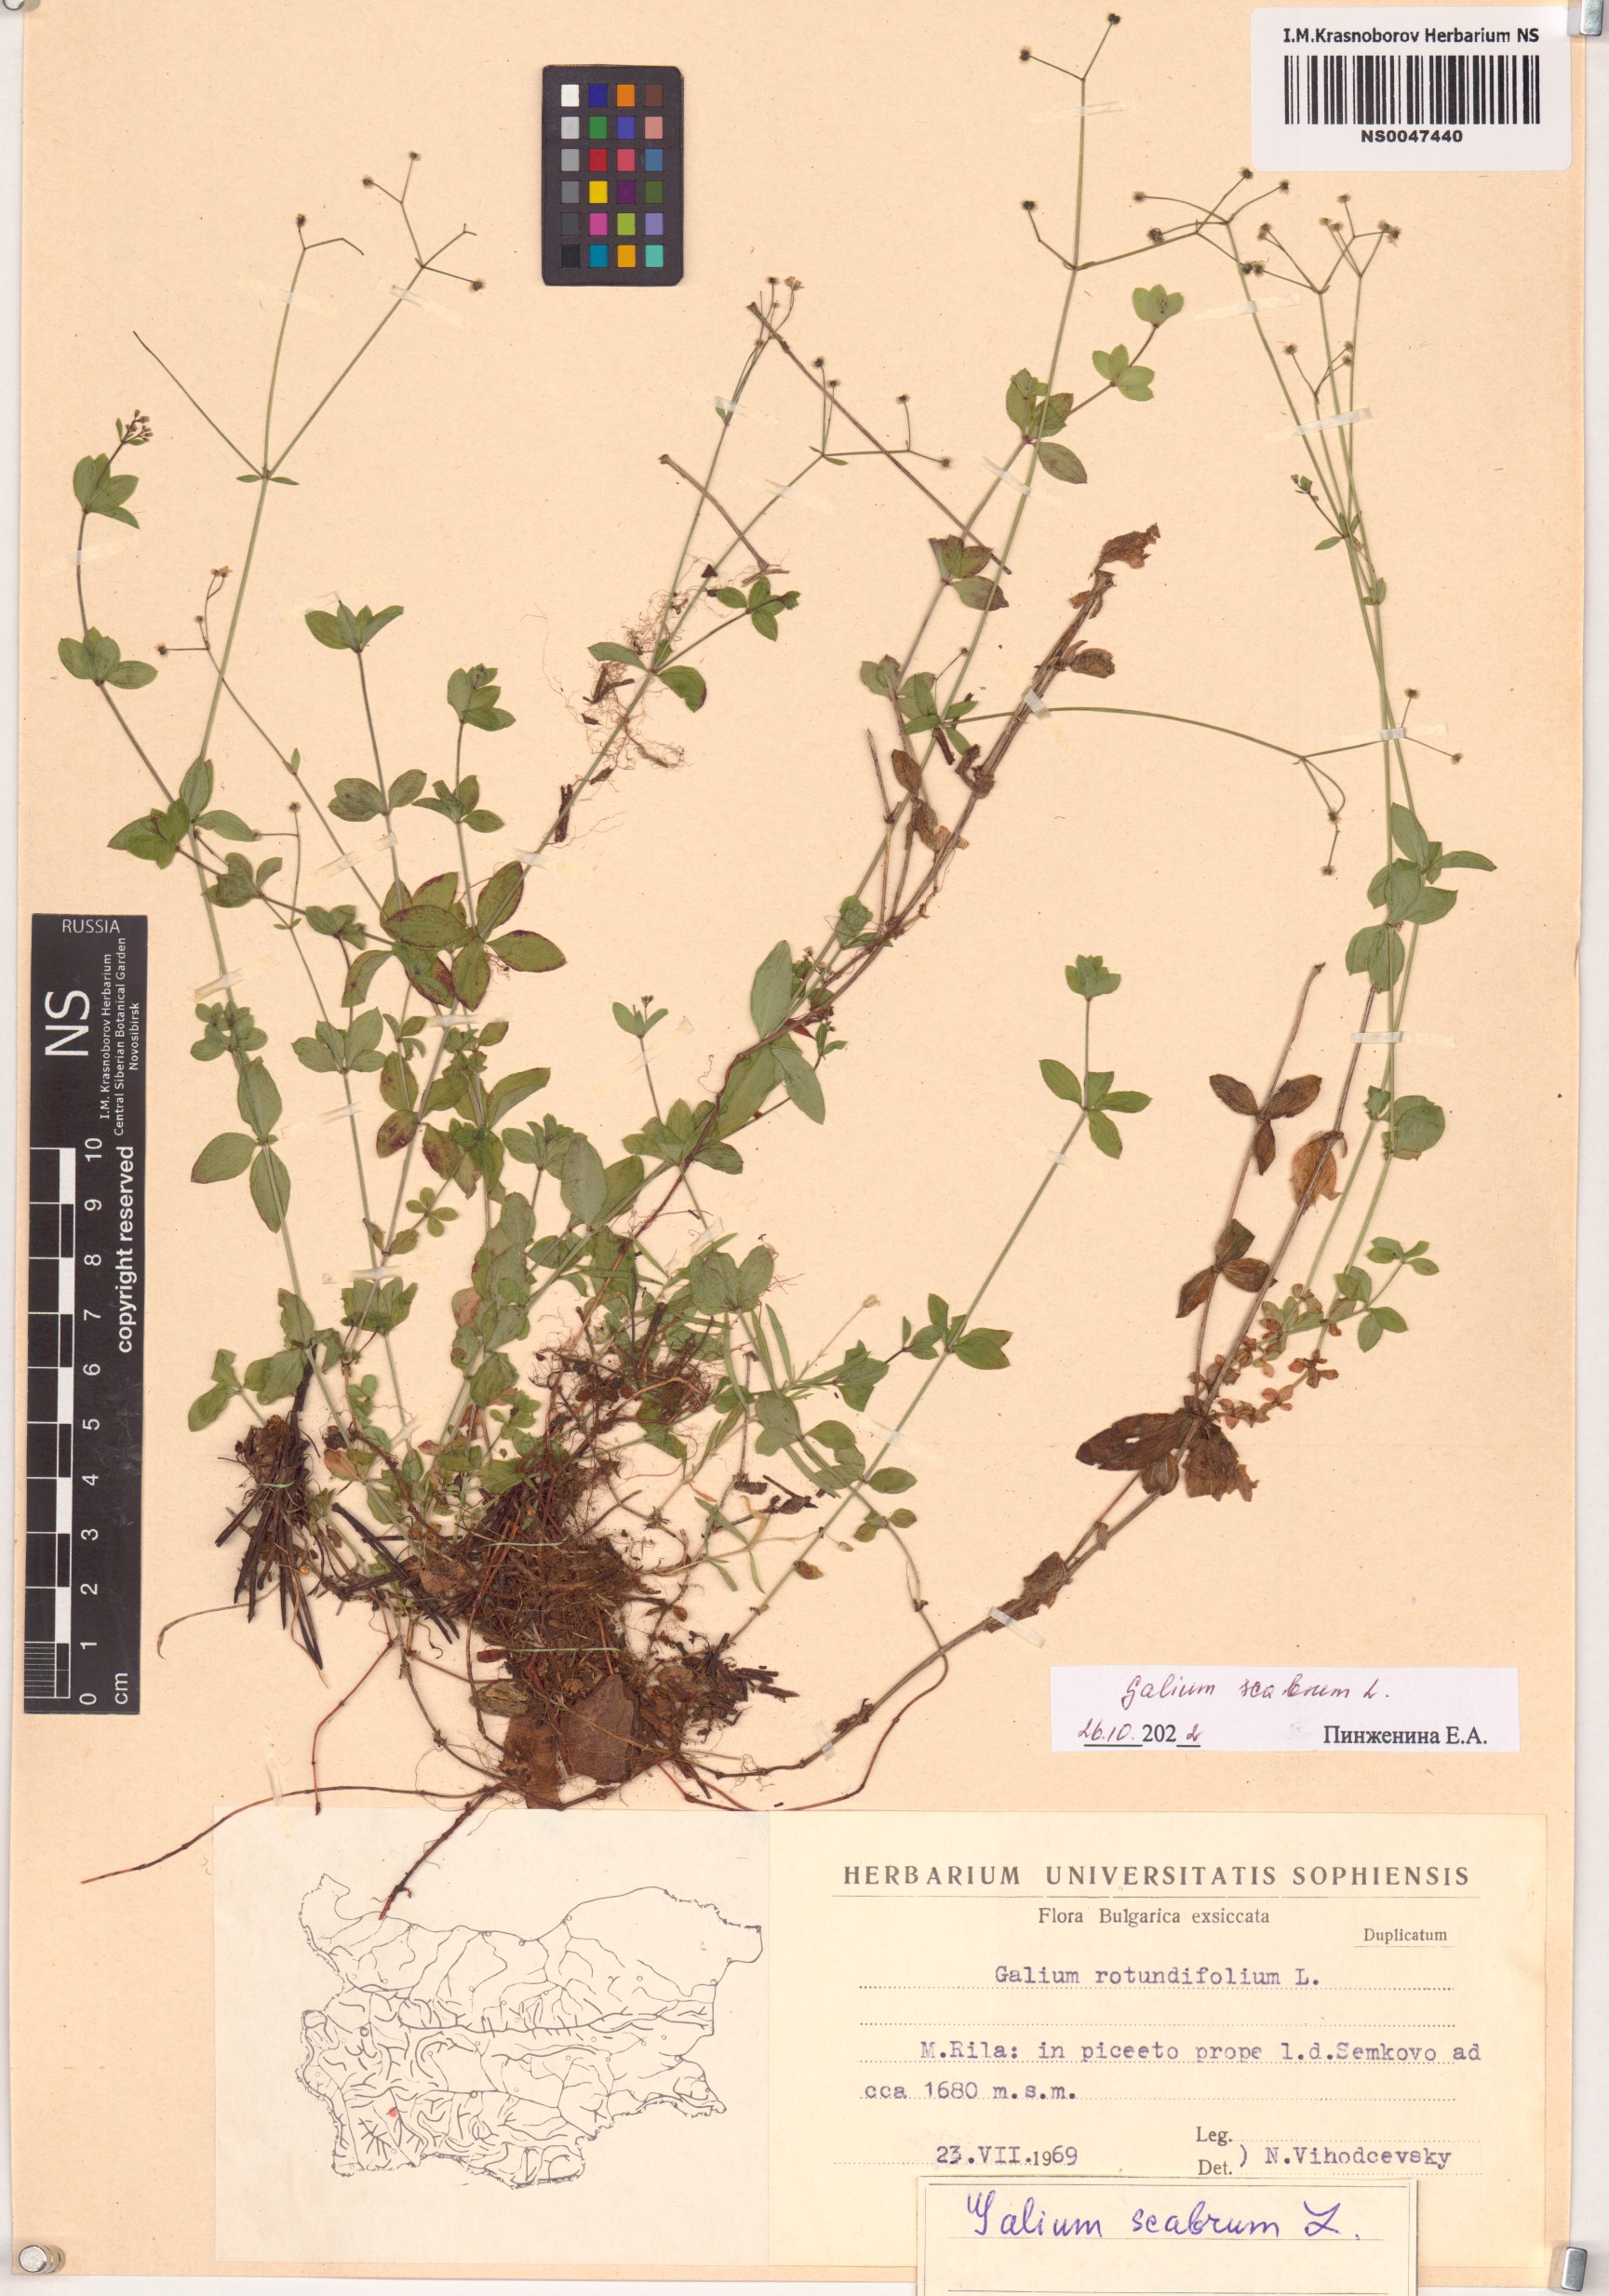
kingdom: Plantae
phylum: Tracheophyta
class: Magnoliopsida
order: Gentianales
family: Rubiaceae
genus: Galium
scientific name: Galium scabrum
